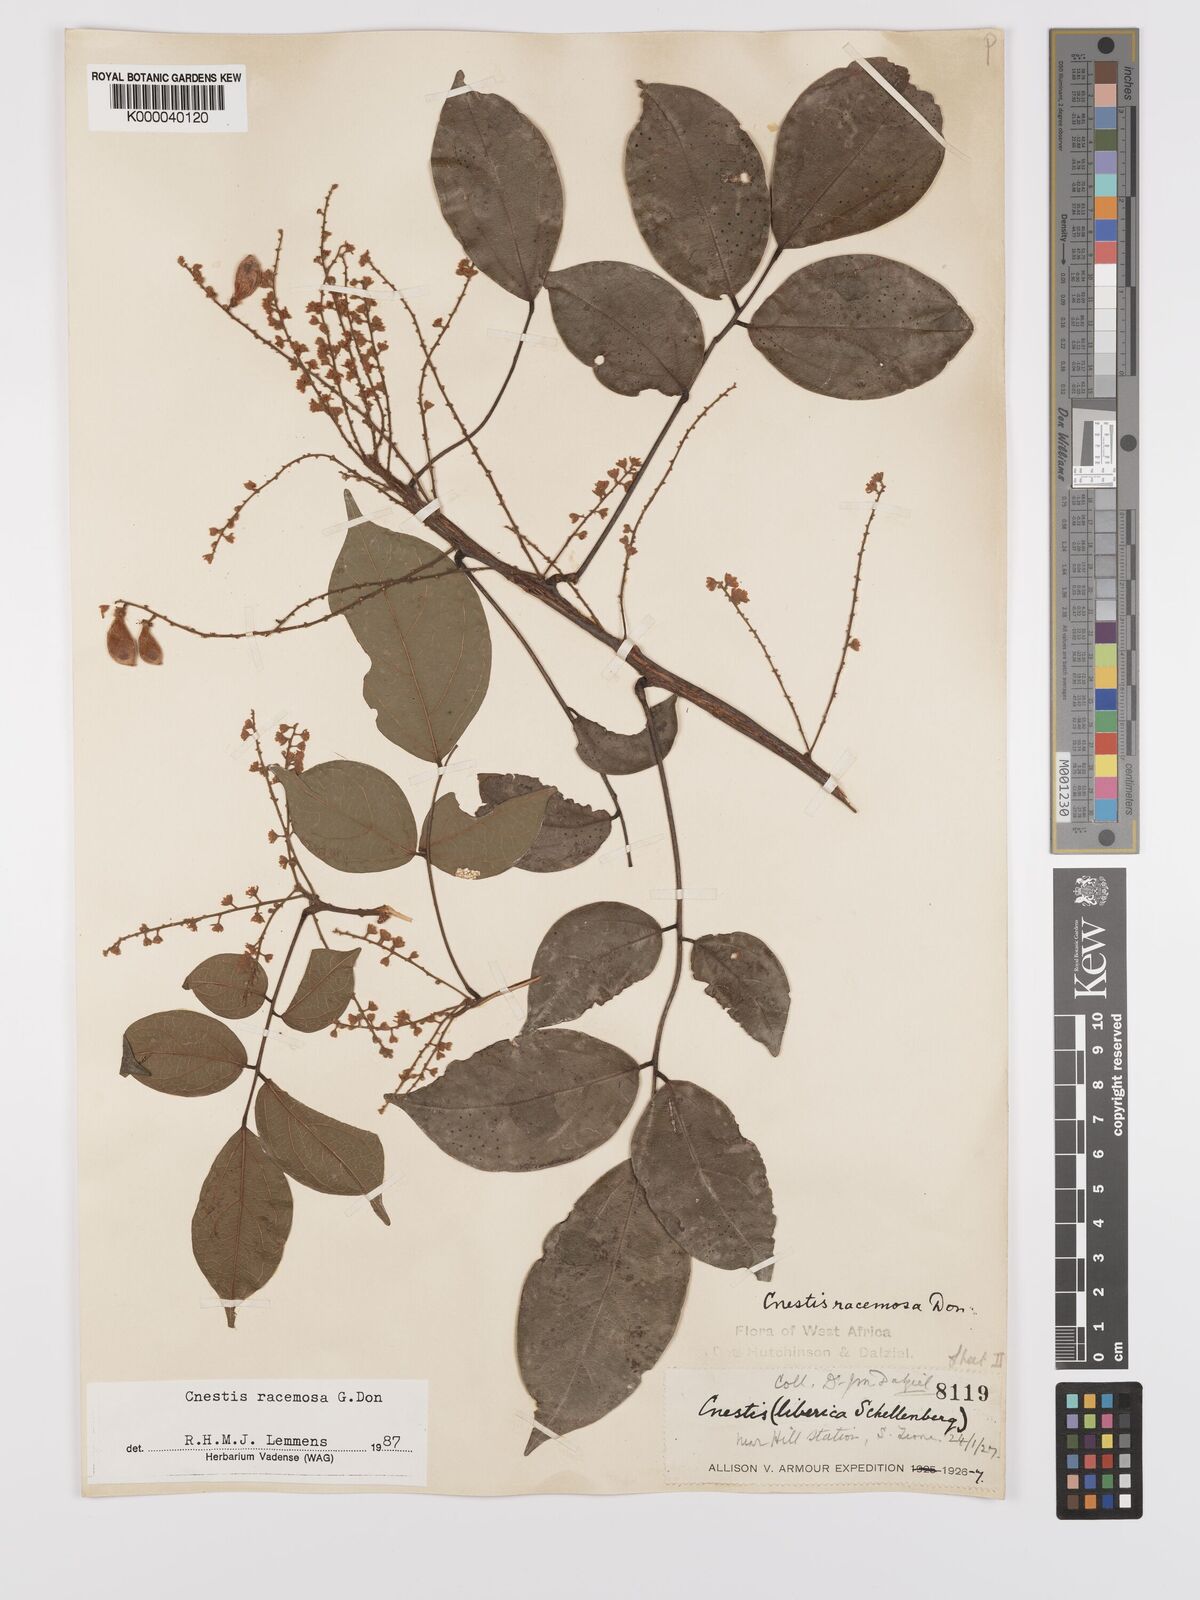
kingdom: Plantae
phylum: Tracheophyta
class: Magnoliopsida
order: Oxalidales
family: Connaraceae
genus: Cnestis
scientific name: Cnestis racemosa
